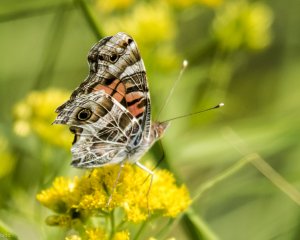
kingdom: Animalia
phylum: Arthropoda
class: Insecta
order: Lepidoptera
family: Nymphalidae
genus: Vanessa
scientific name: Vanessa virginiensis
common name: American Lady
